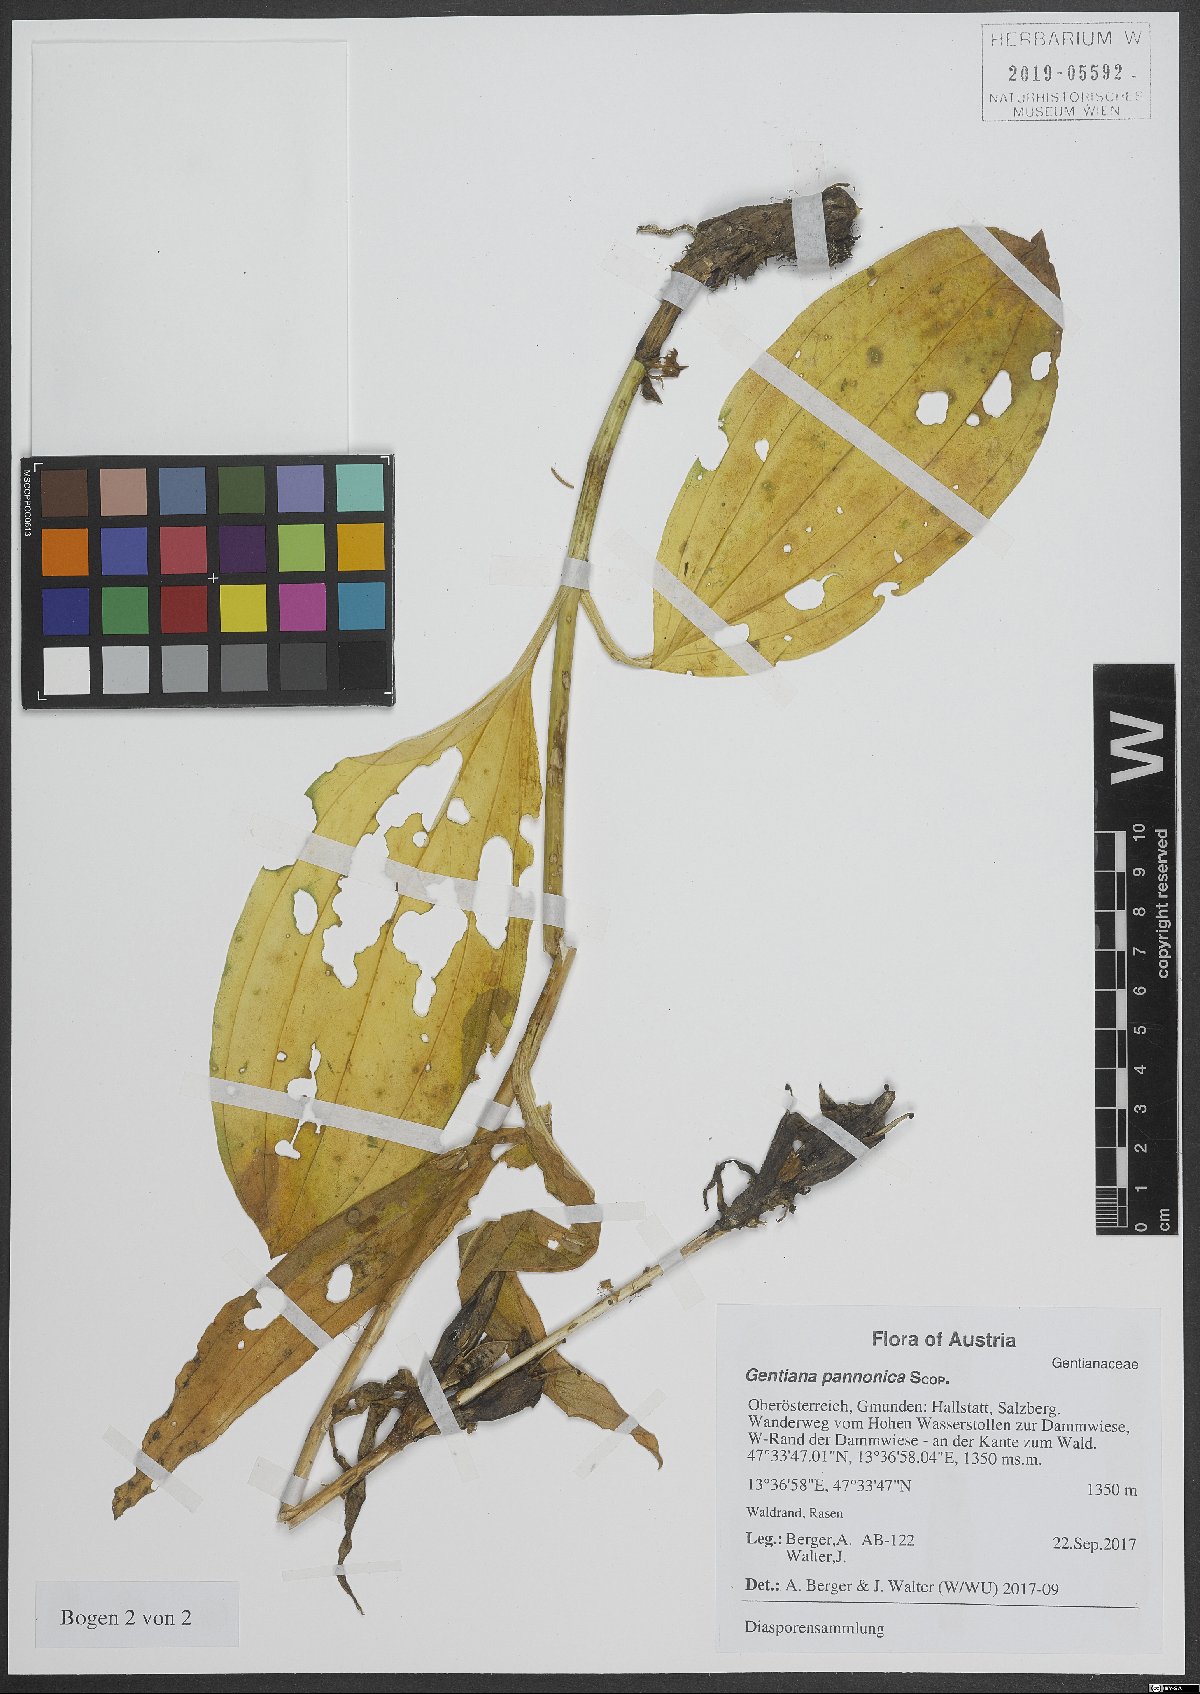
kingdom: Plantae
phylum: Tracheophyta
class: Magnoliopsida
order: Gentianales
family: Gentianaceae
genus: Gentiana
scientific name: Gentiana pannonica
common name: Hungarian gentian
